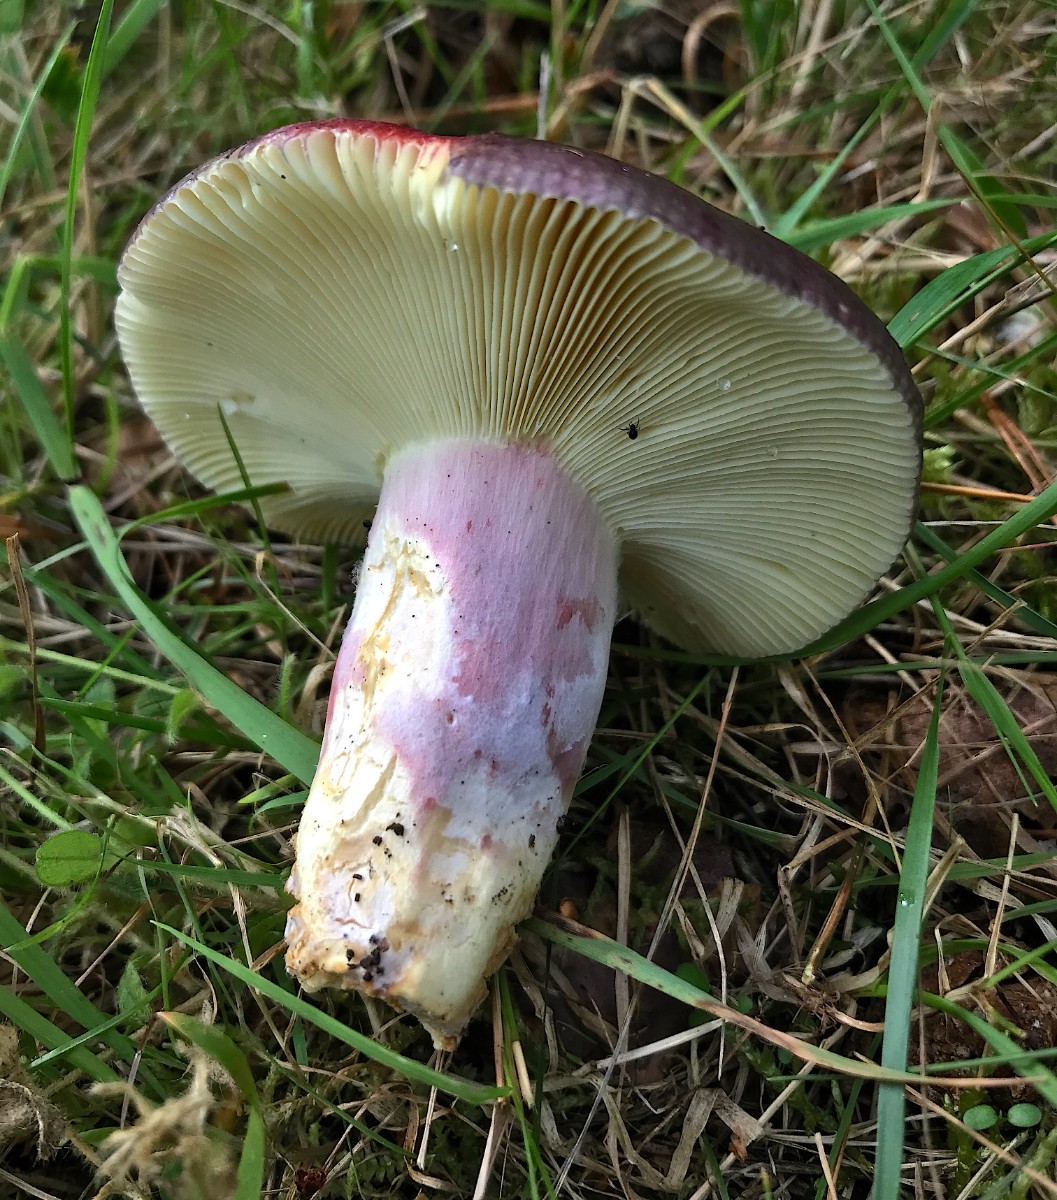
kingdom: Fungi
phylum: Basidiomycota
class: Agaricomycetes
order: Russulales
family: Russulaceae
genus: Russula
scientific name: Russula sardonia
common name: citronbladet skørhat
